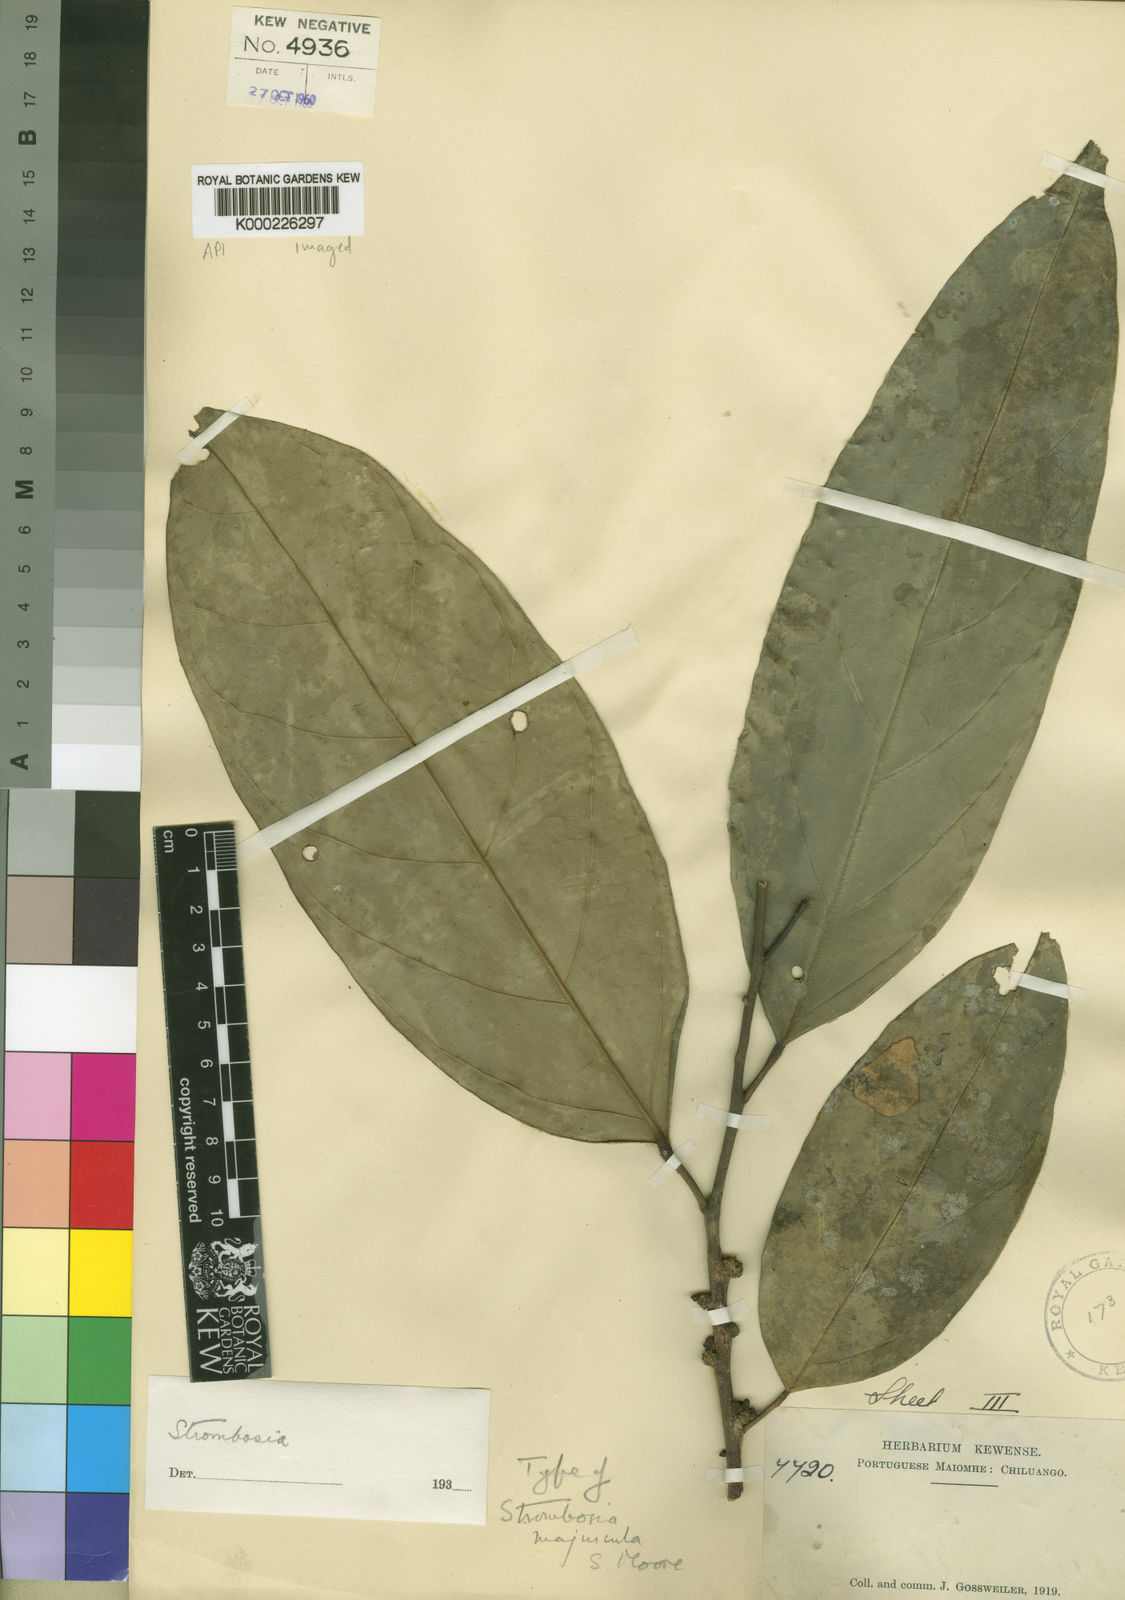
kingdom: Plantae
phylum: Tracheophyta
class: Magnoliopsida
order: Santalales
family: Strombosiaceae
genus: Diogoa
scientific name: Diogoa
